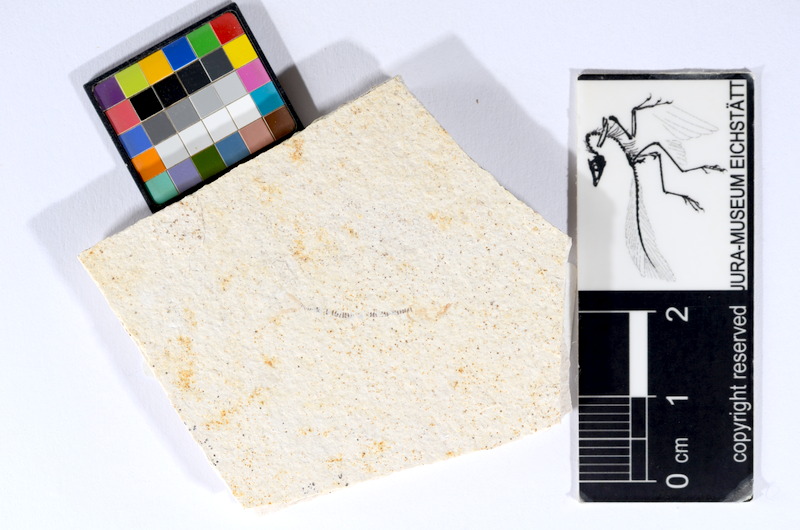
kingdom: Animalia
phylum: Chordata
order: Salmoniformes
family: Orthogonikleithridae
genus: Orthogonikleithrus
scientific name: Orthogonikleithrus hoelli
